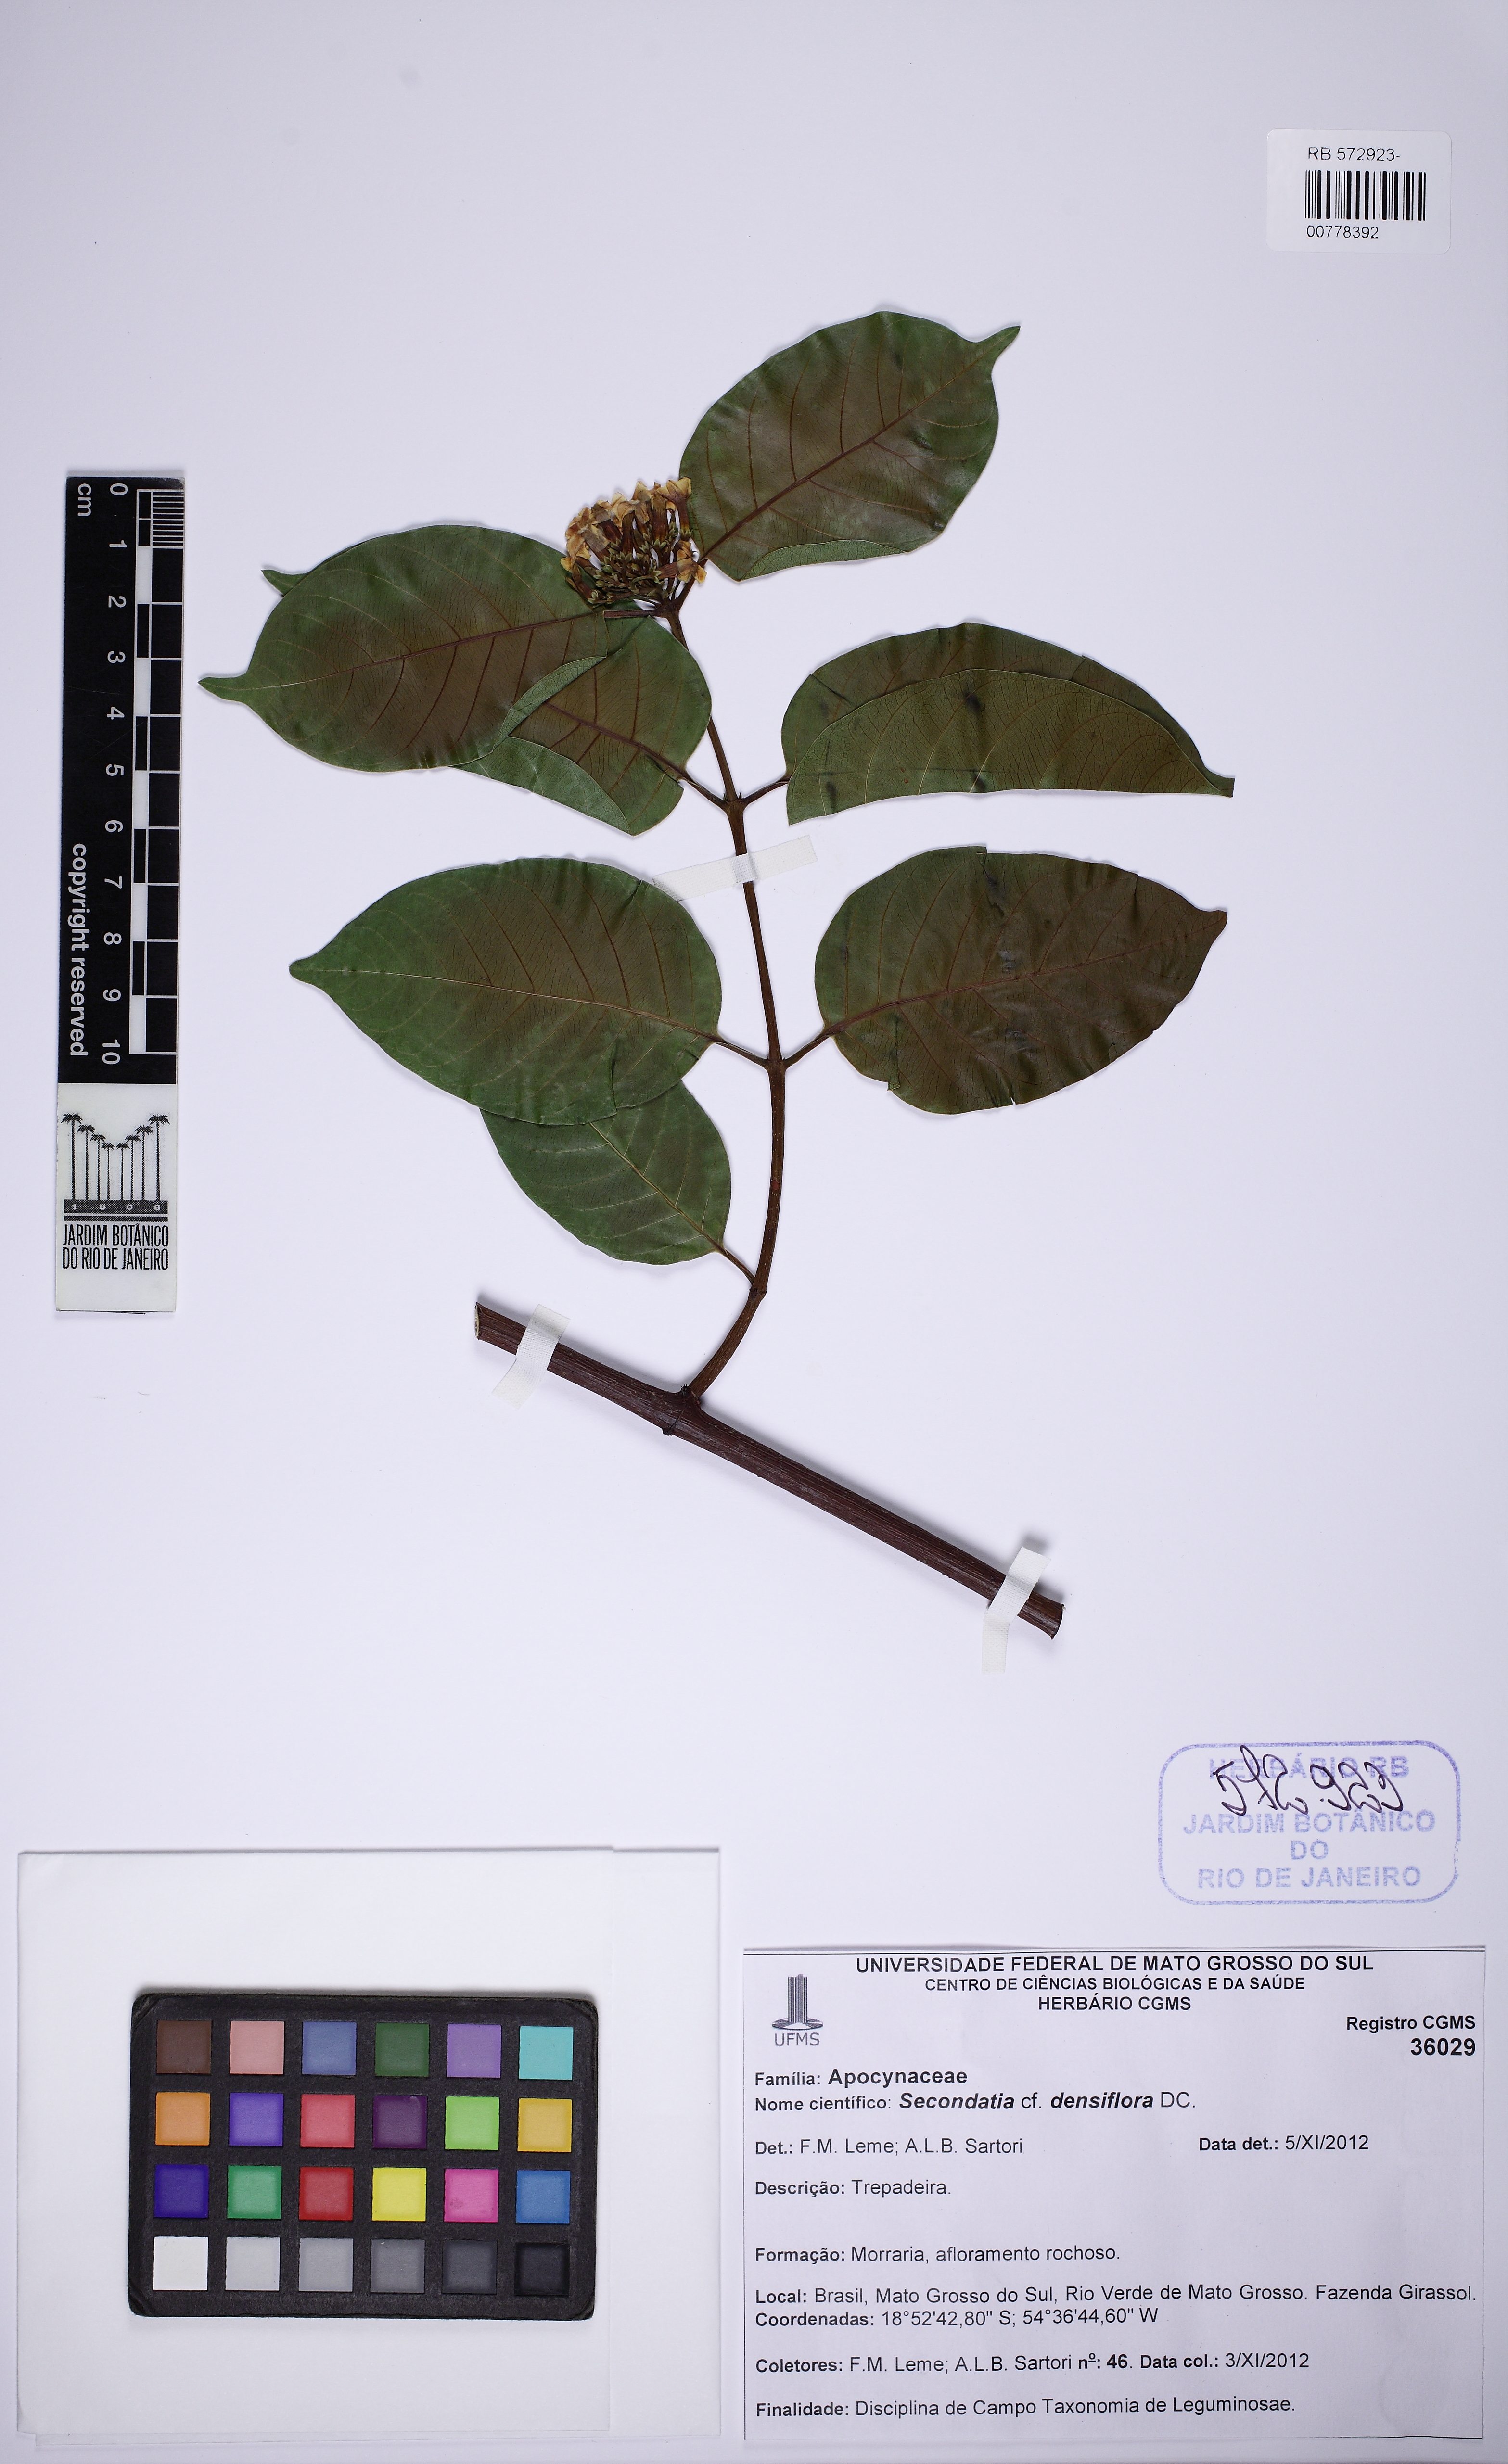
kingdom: Plantae
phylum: Tracheophyta
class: Magnoliopsida
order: Gentianales
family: Apocynaceae
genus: Secondatia
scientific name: Secondatia densiflora
